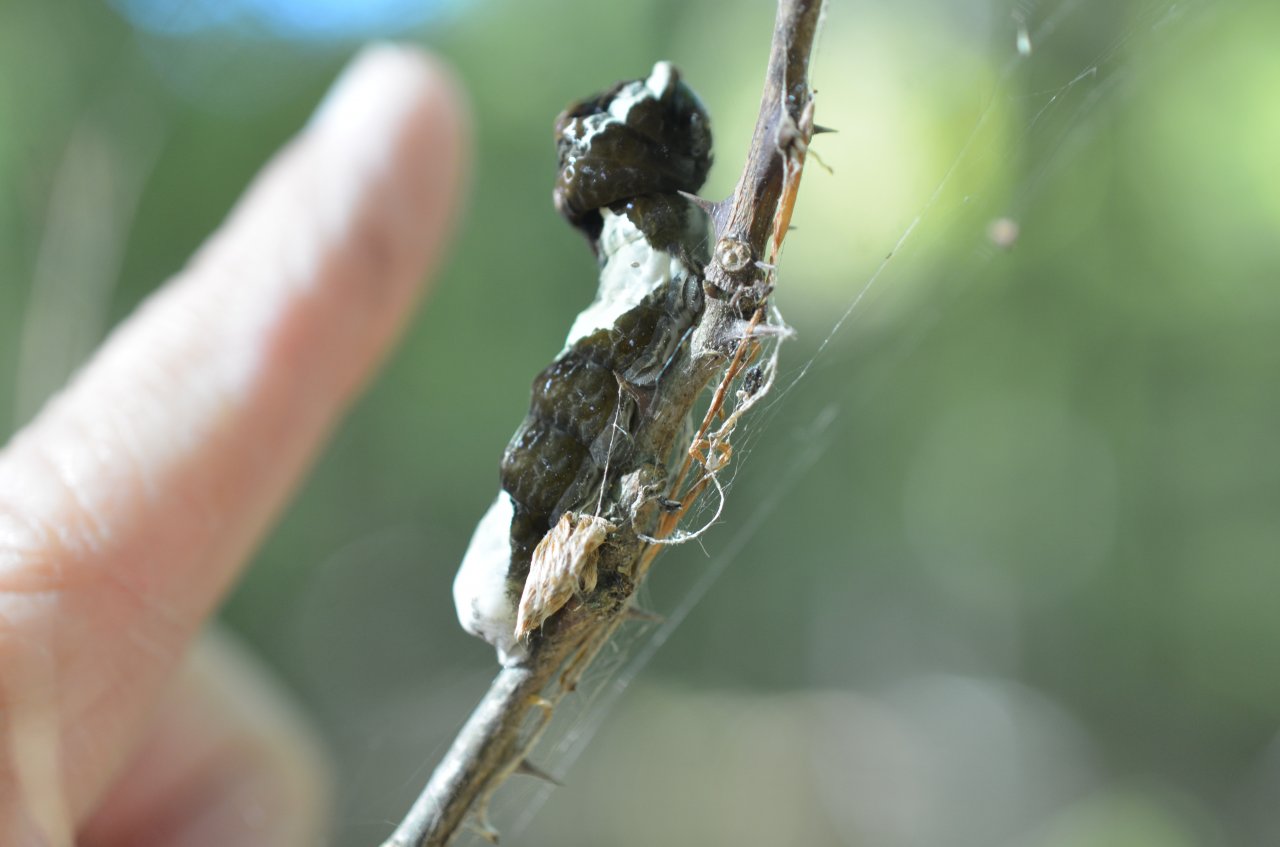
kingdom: Animalia
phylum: Arthropoda
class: Insecta
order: Lepidoptera
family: Papilionidae
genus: Papilio
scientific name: Papilio cresphontes
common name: Eastern Giant Swallowtail
